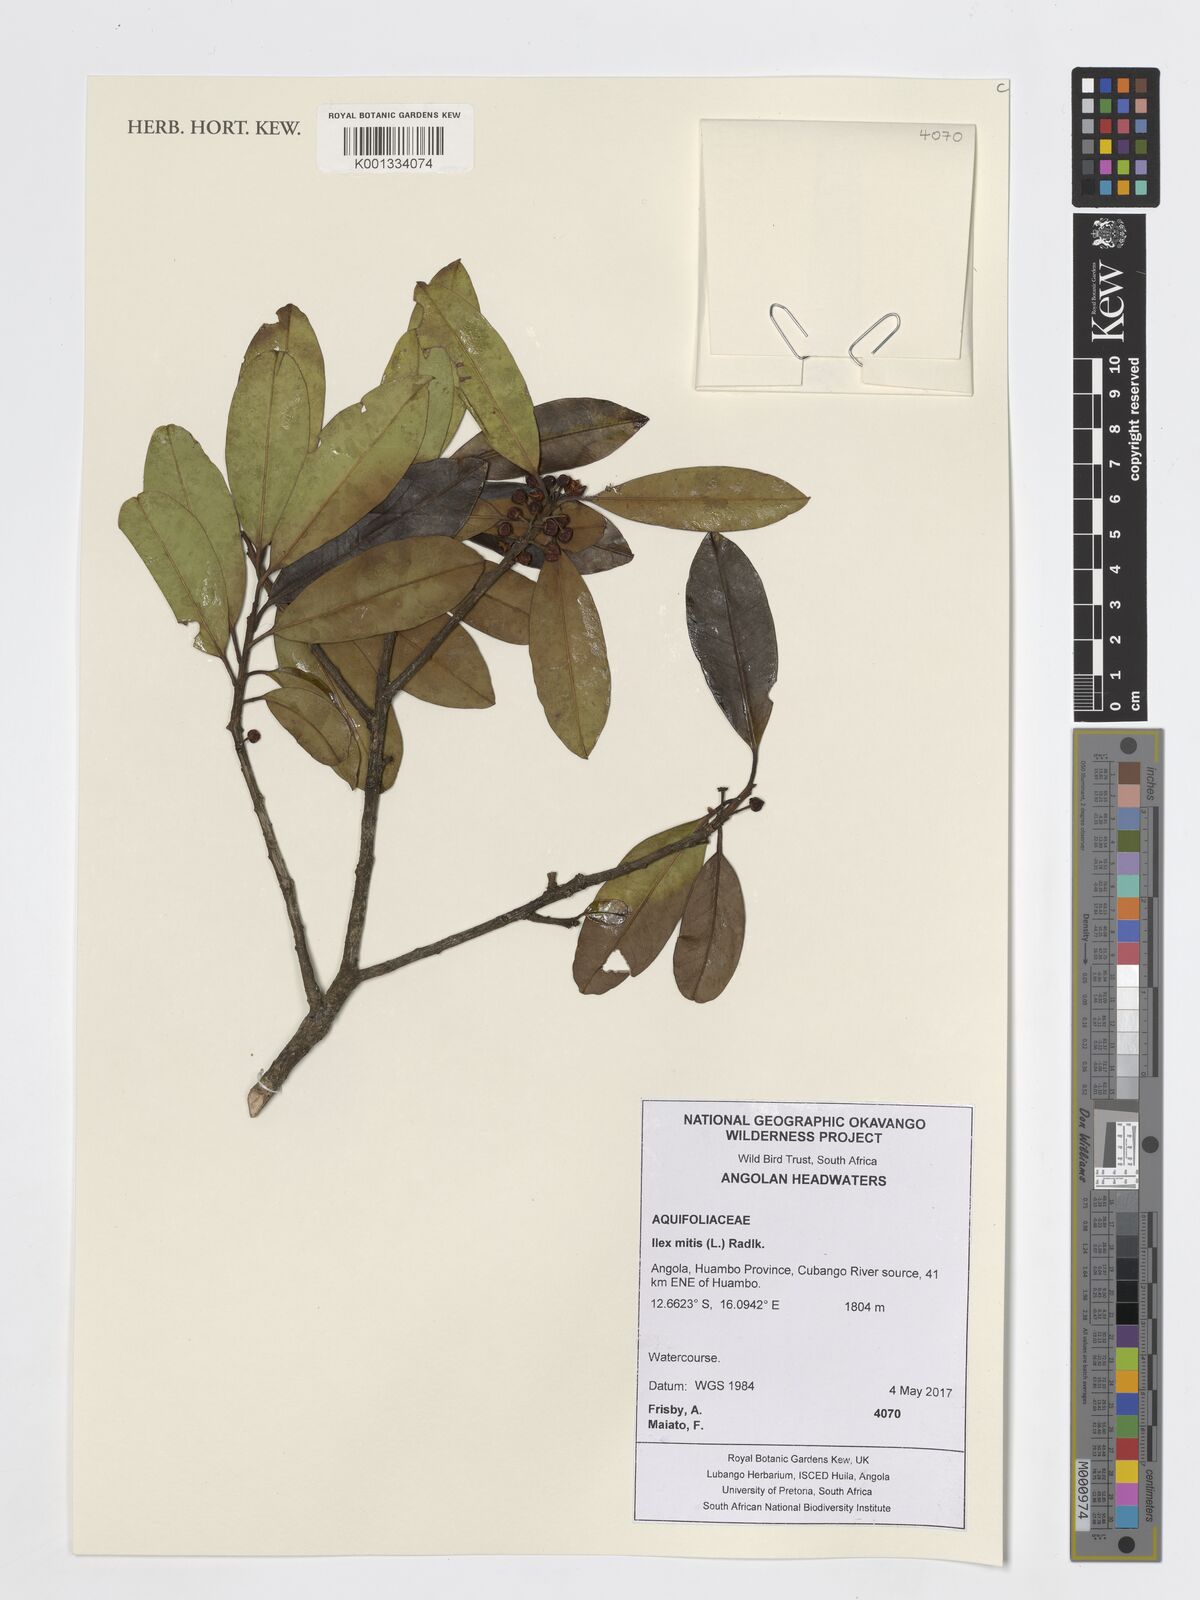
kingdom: Plantae
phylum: Tracheophyta
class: Magnoliopsida
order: Aquifoliales
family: Aquifoliaceae
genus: Ilex
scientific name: Ilex mitis
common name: African holly
